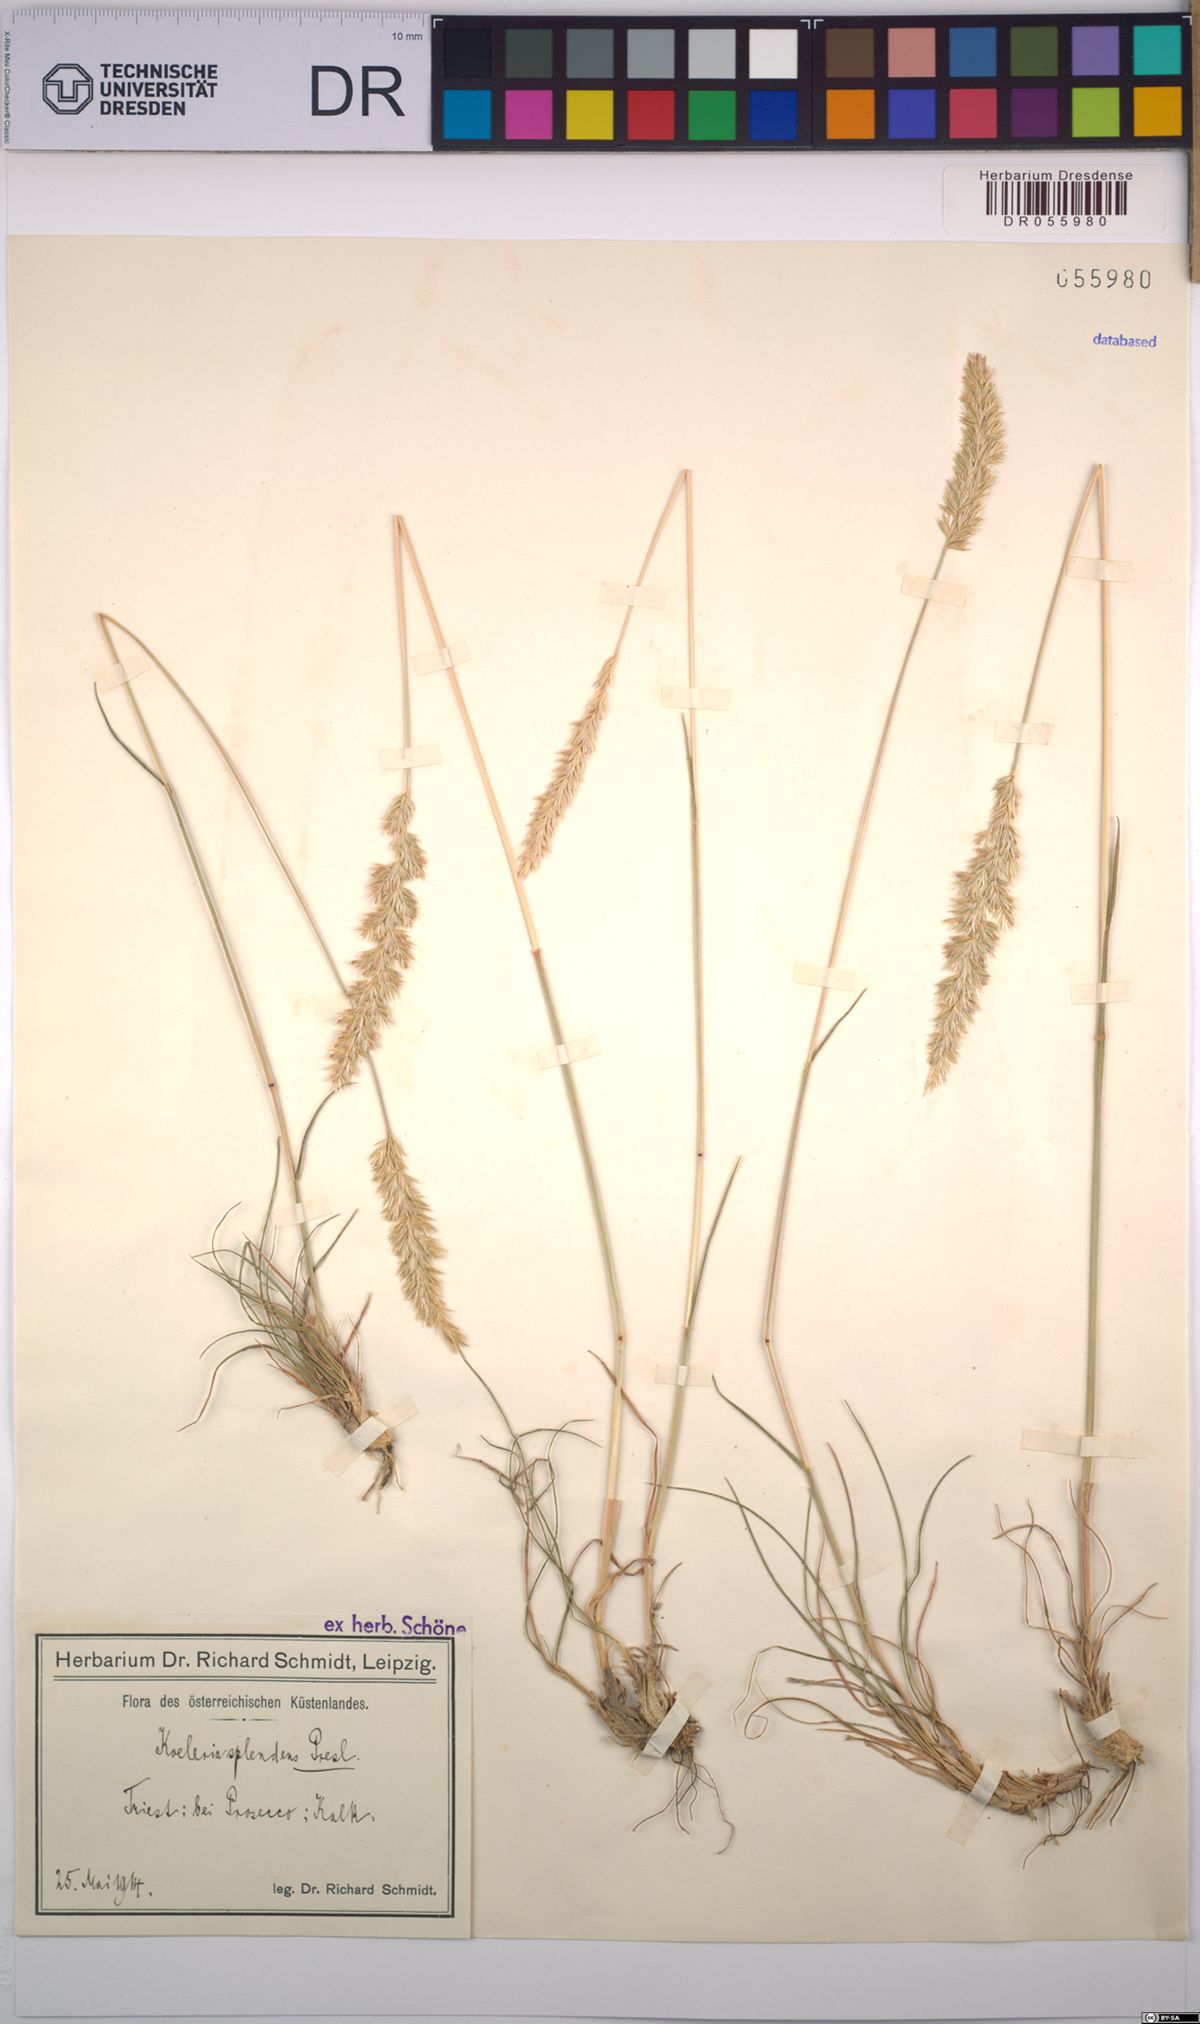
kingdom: Plantae
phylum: Tracheophyta
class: Liliopsida
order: Poales
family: Poaceae
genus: Koeleria
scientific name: Koeleria splendens
